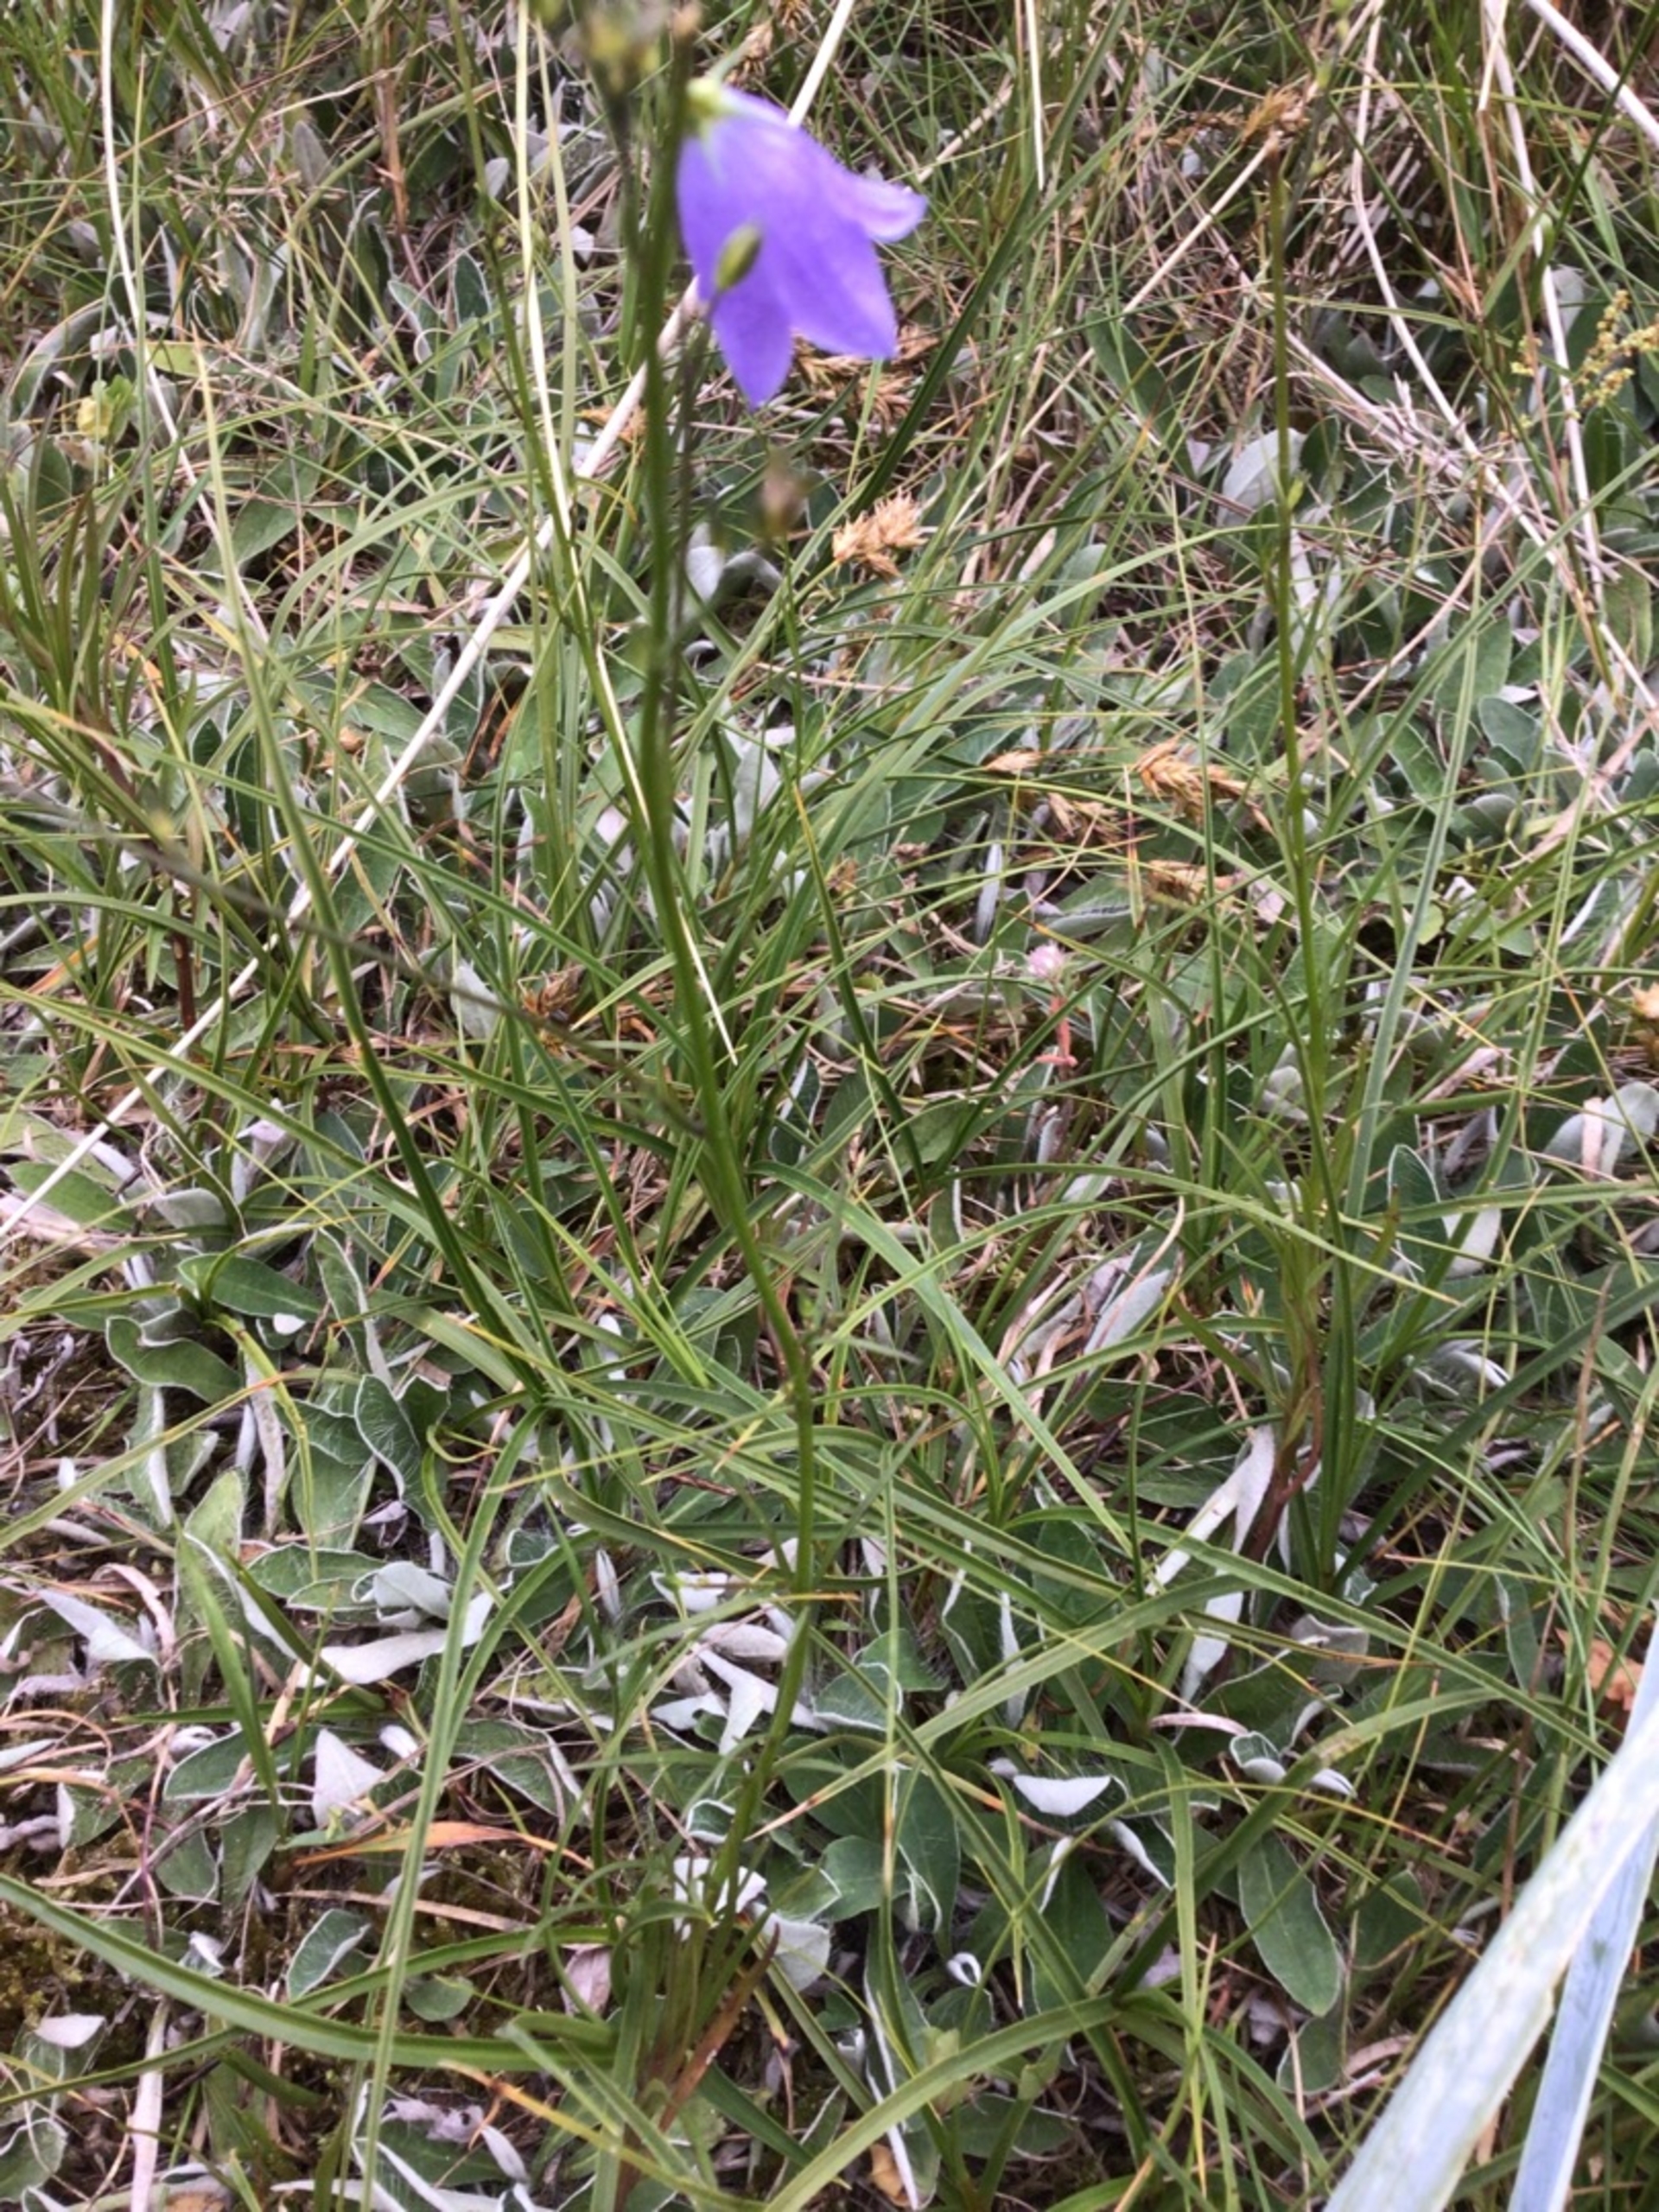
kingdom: Plantae
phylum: Tracheophyta
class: Magnoliopsida
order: Asterales
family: Campanulaceae
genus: Campanula
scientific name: Campanula rotundifolia
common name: Liden klokke
